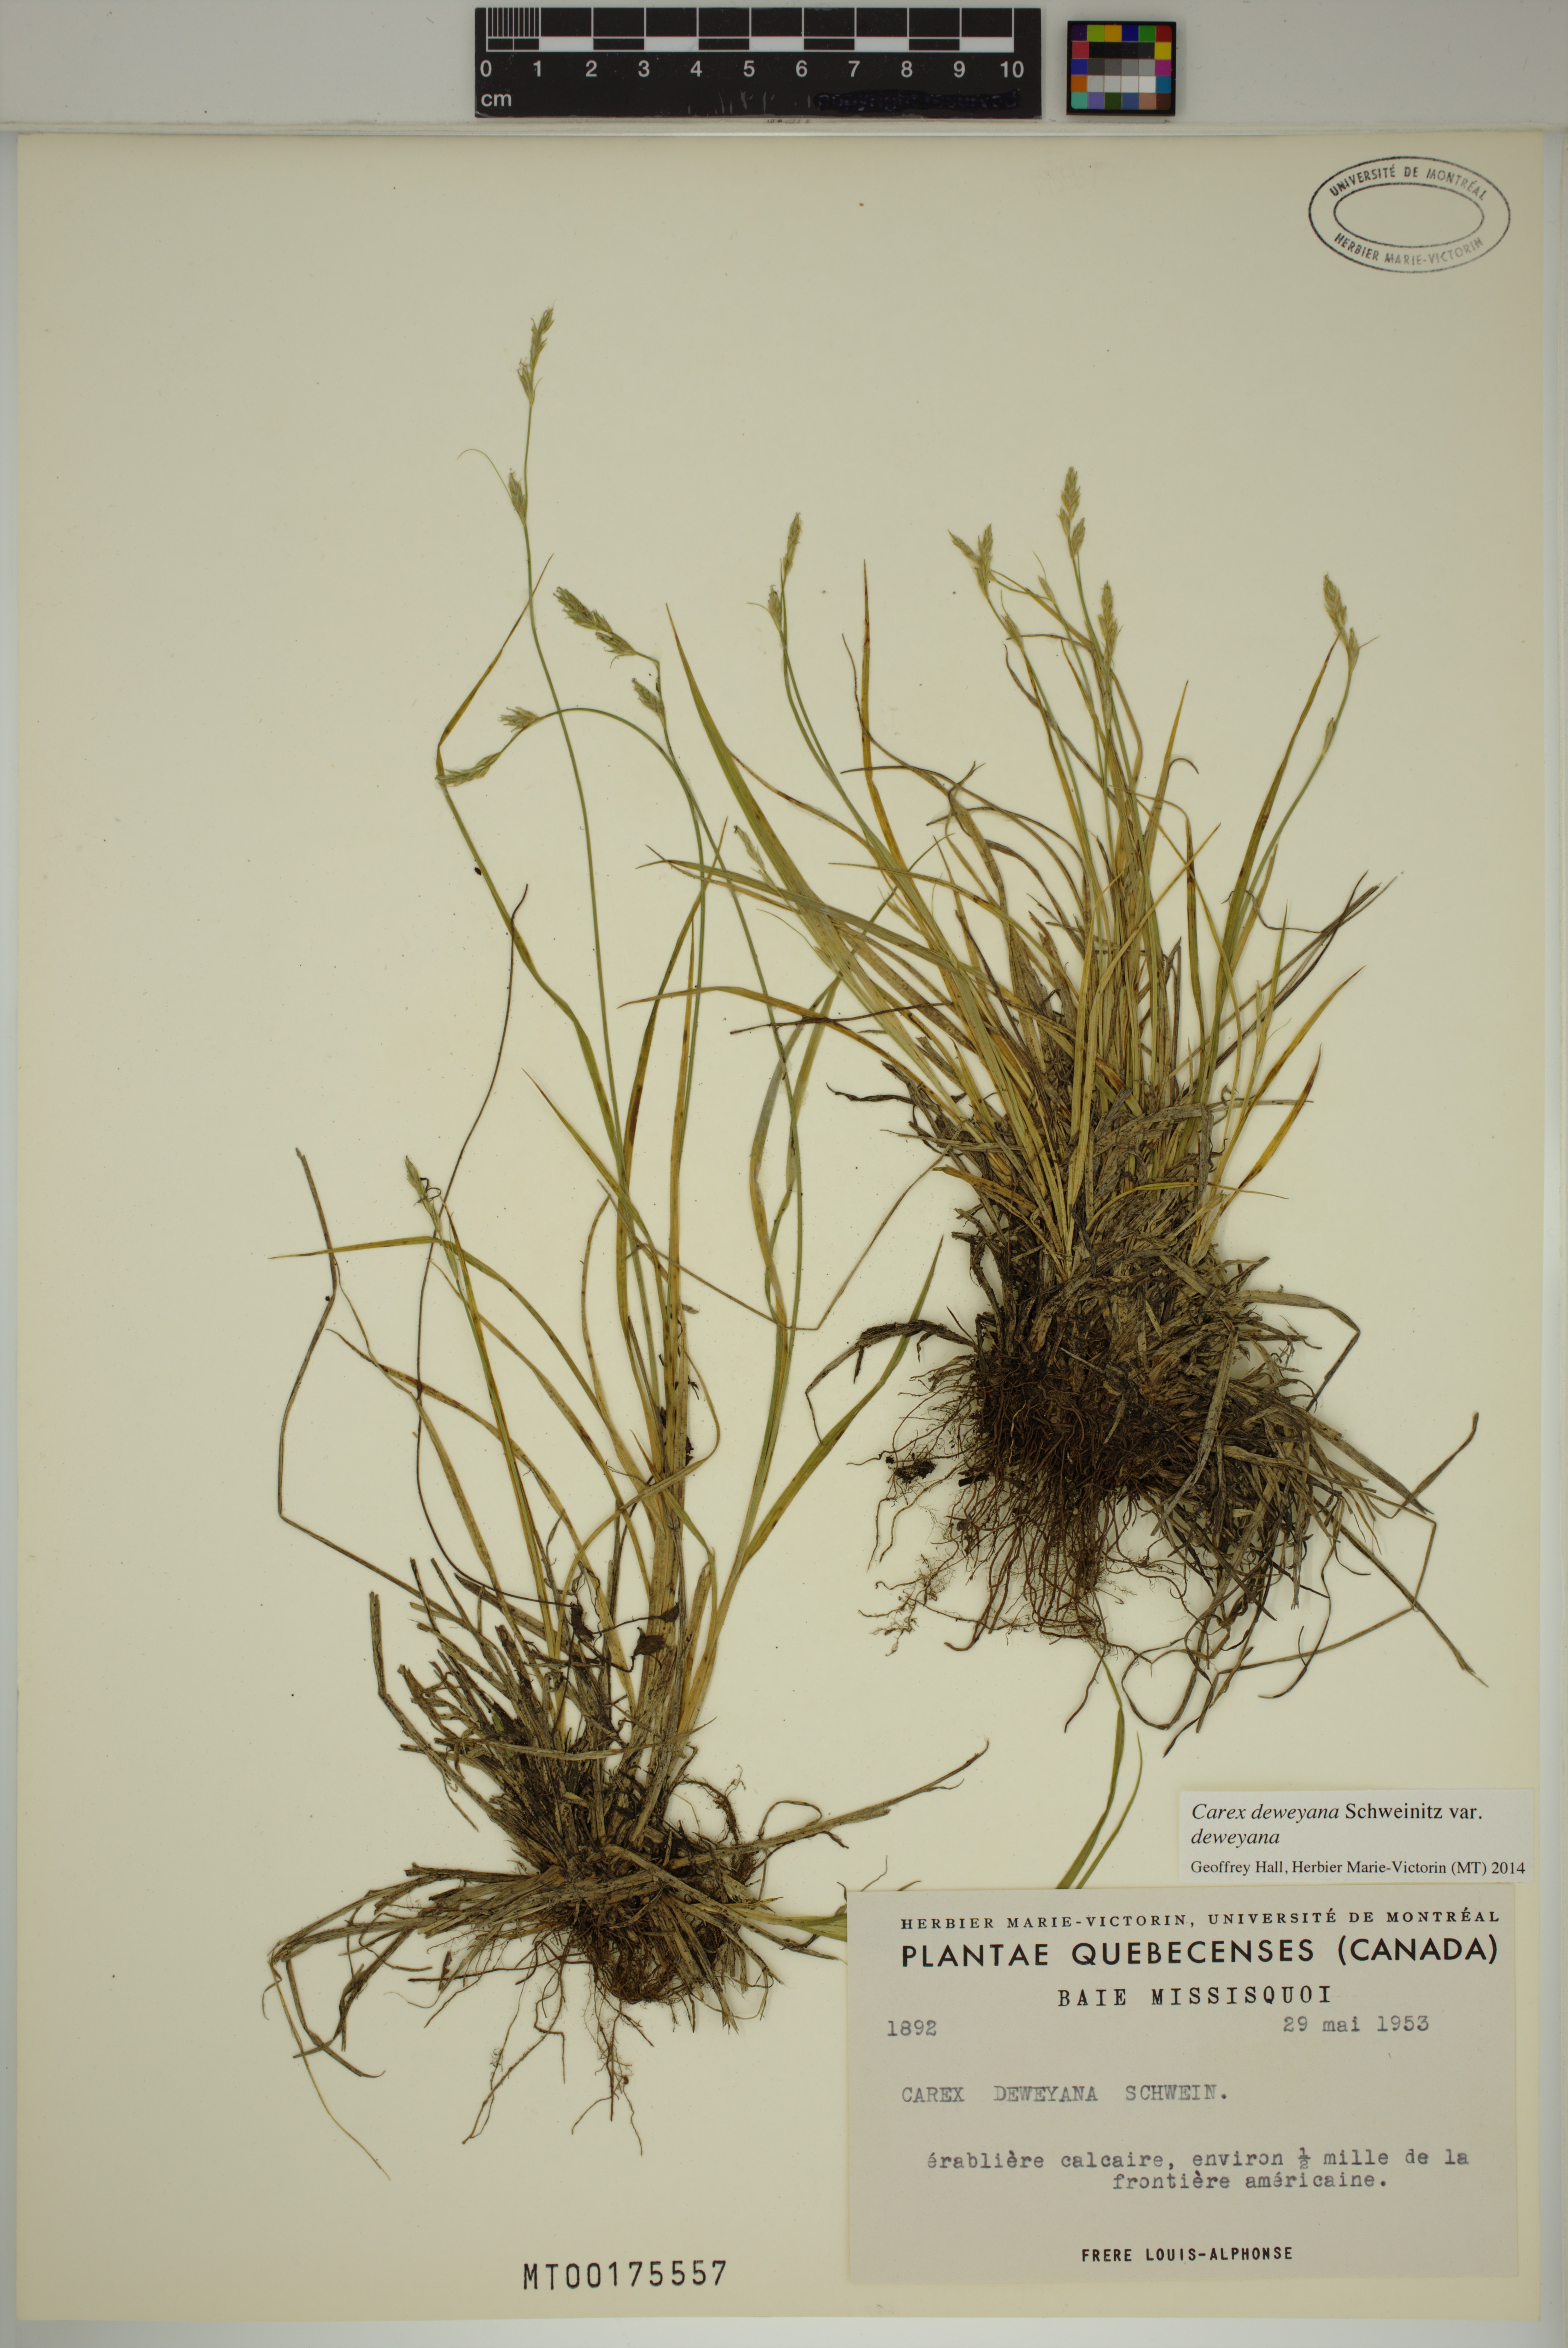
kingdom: Plantae
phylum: Tracheophyta
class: Liliopsida
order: Poales
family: Cyperaceae
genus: Carex
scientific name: Carex deweyana
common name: Dewey's sedge
